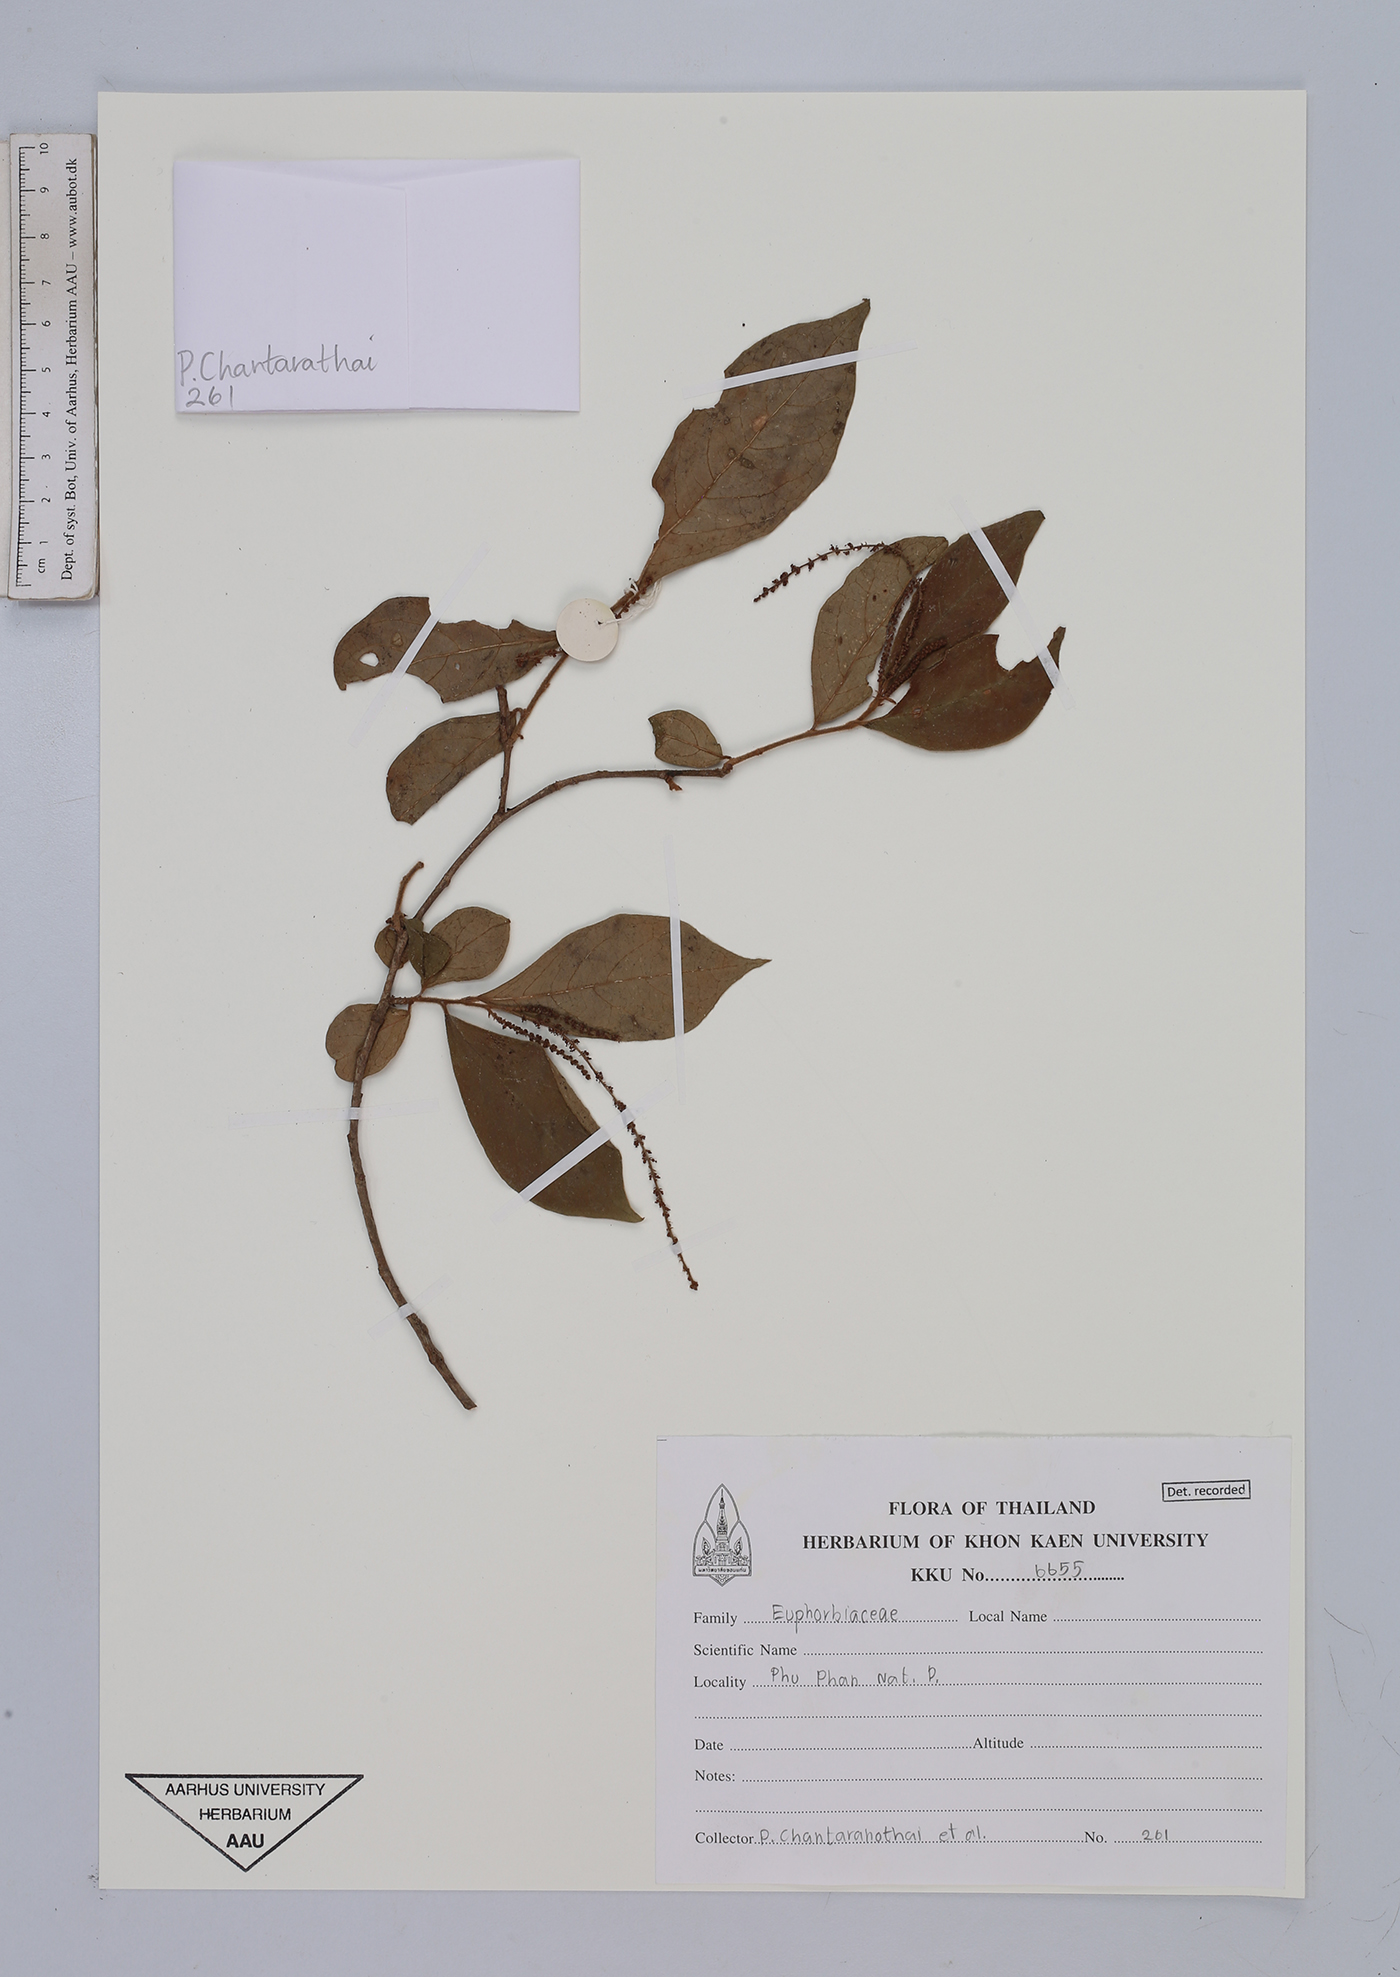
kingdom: Plantae
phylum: Tracheophyta
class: Magnoliopsida
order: Malpighiales
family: Euphorbiaceae
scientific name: Euphorbiaceae
